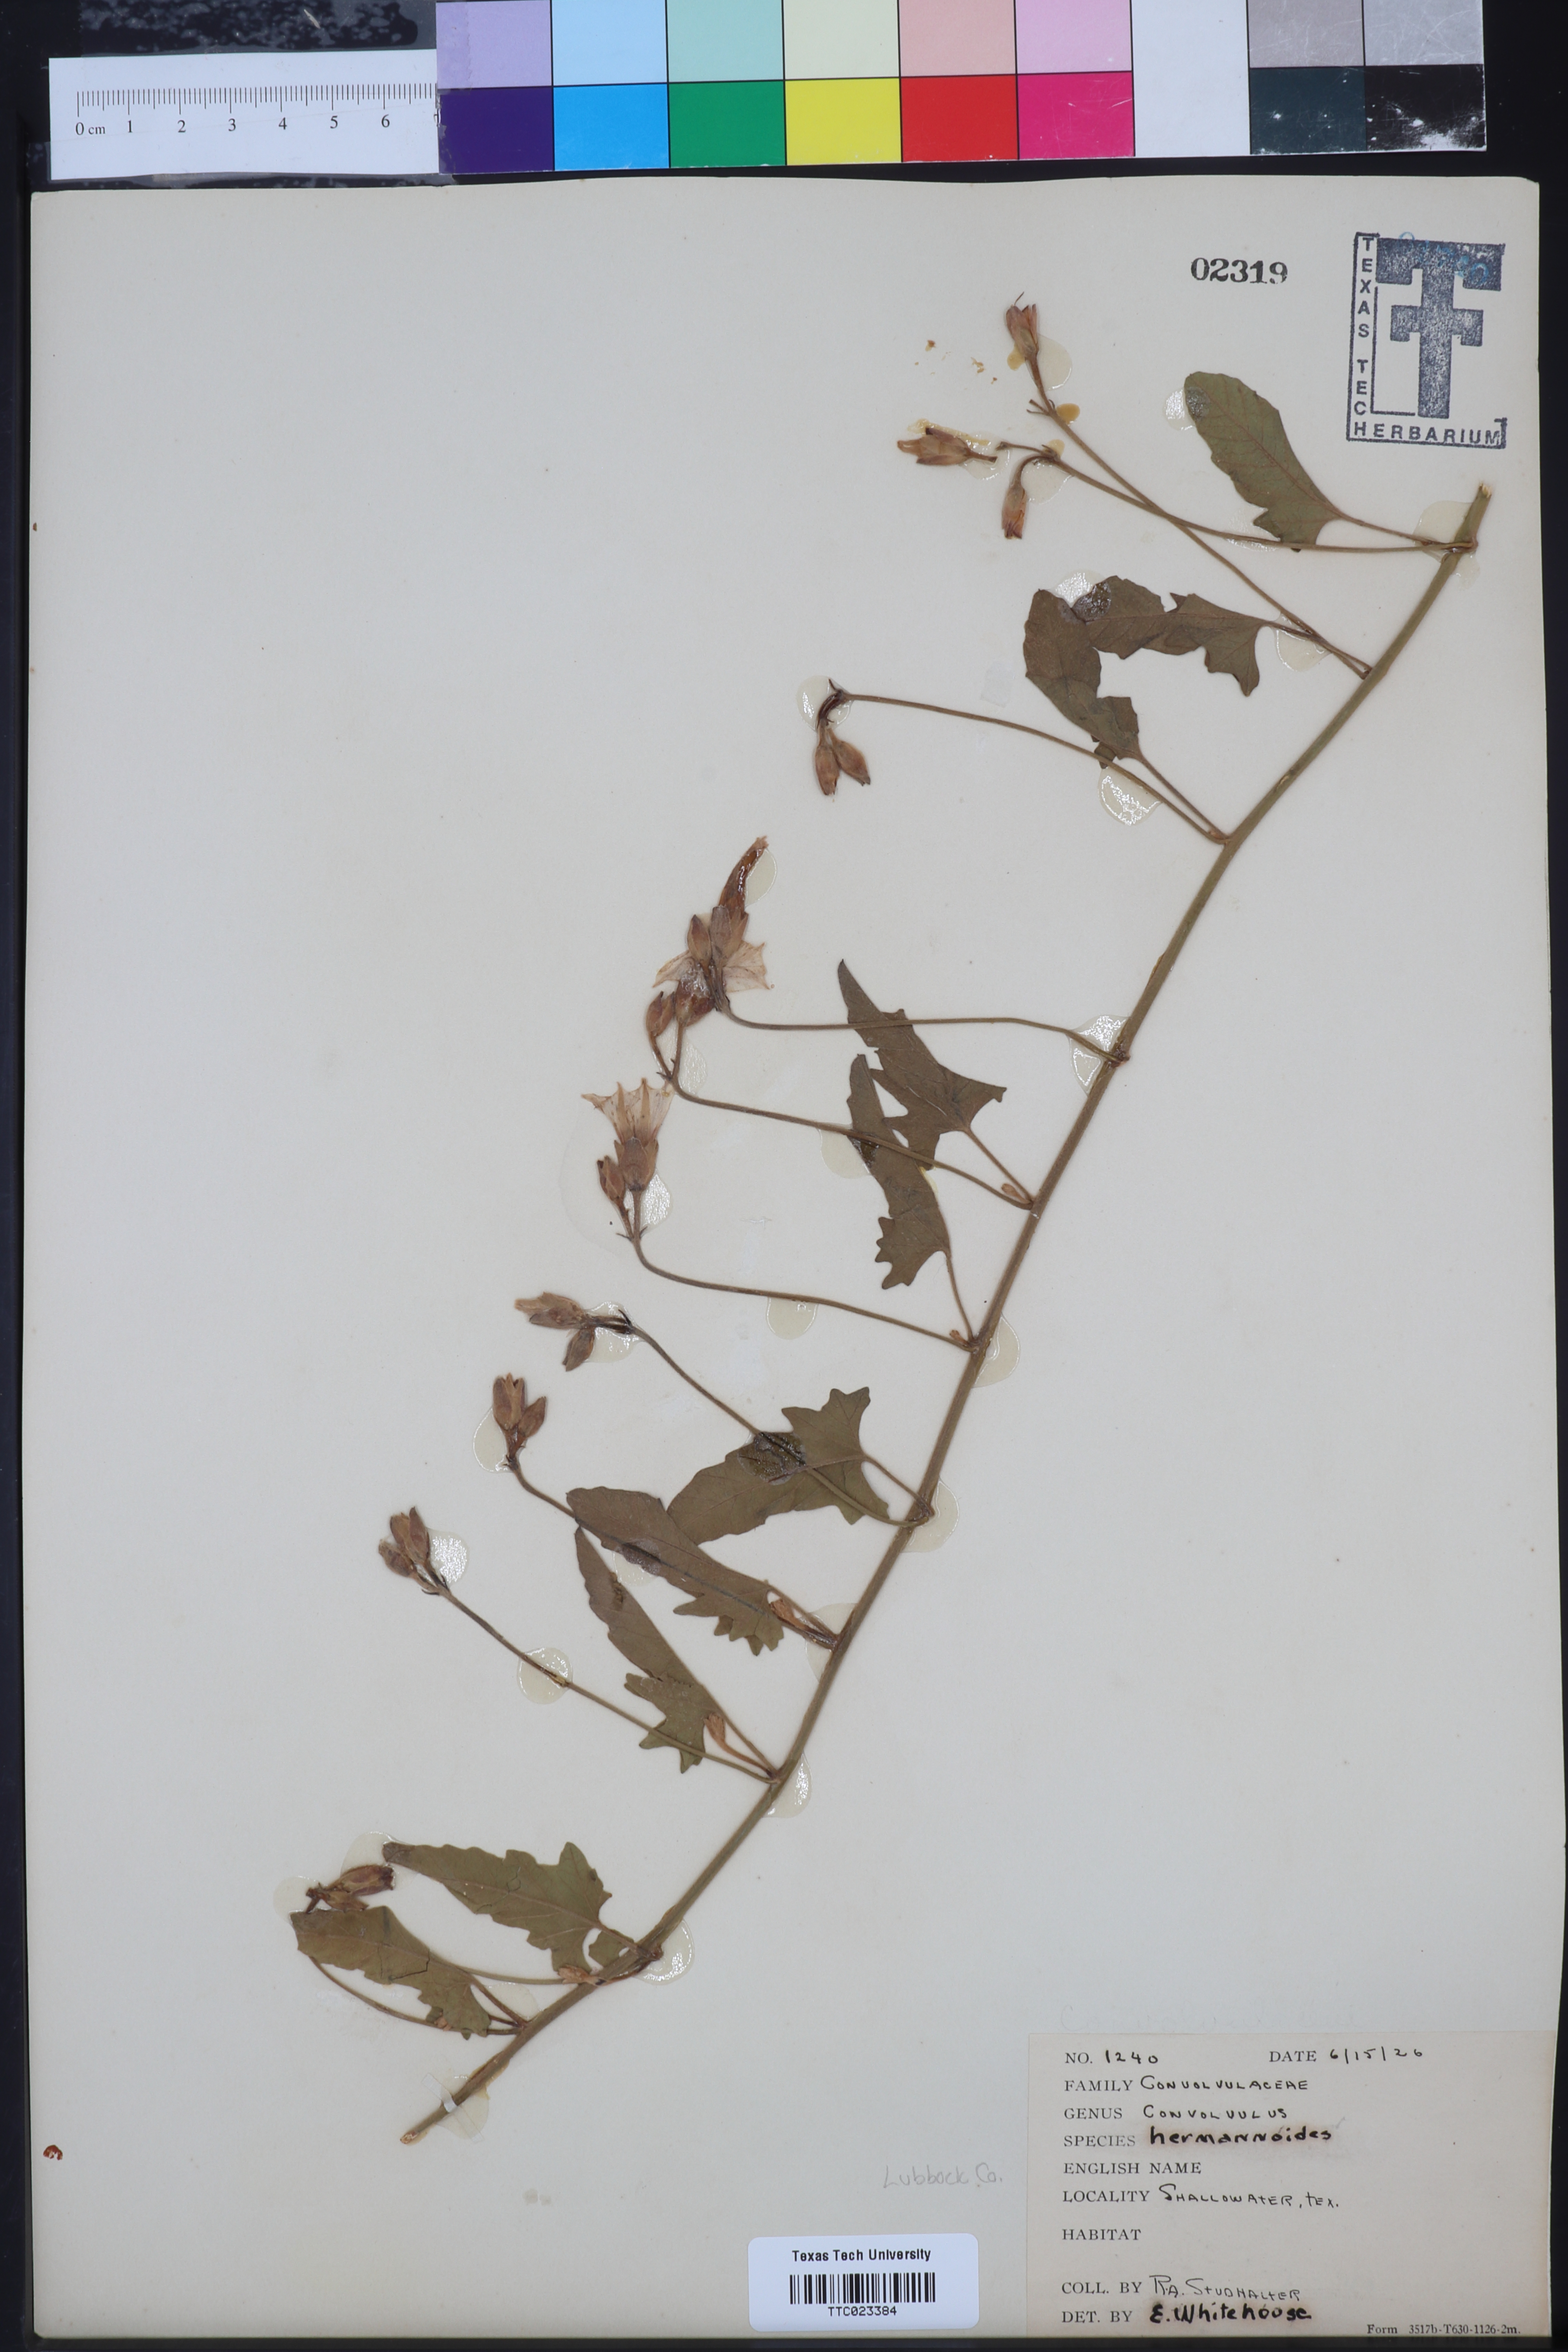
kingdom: Plantae
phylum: Tracheophyta
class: Magnoliopsida
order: Solanales
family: Convolvulaceae
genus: Convolvulus
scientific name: Convolvulus equitans
